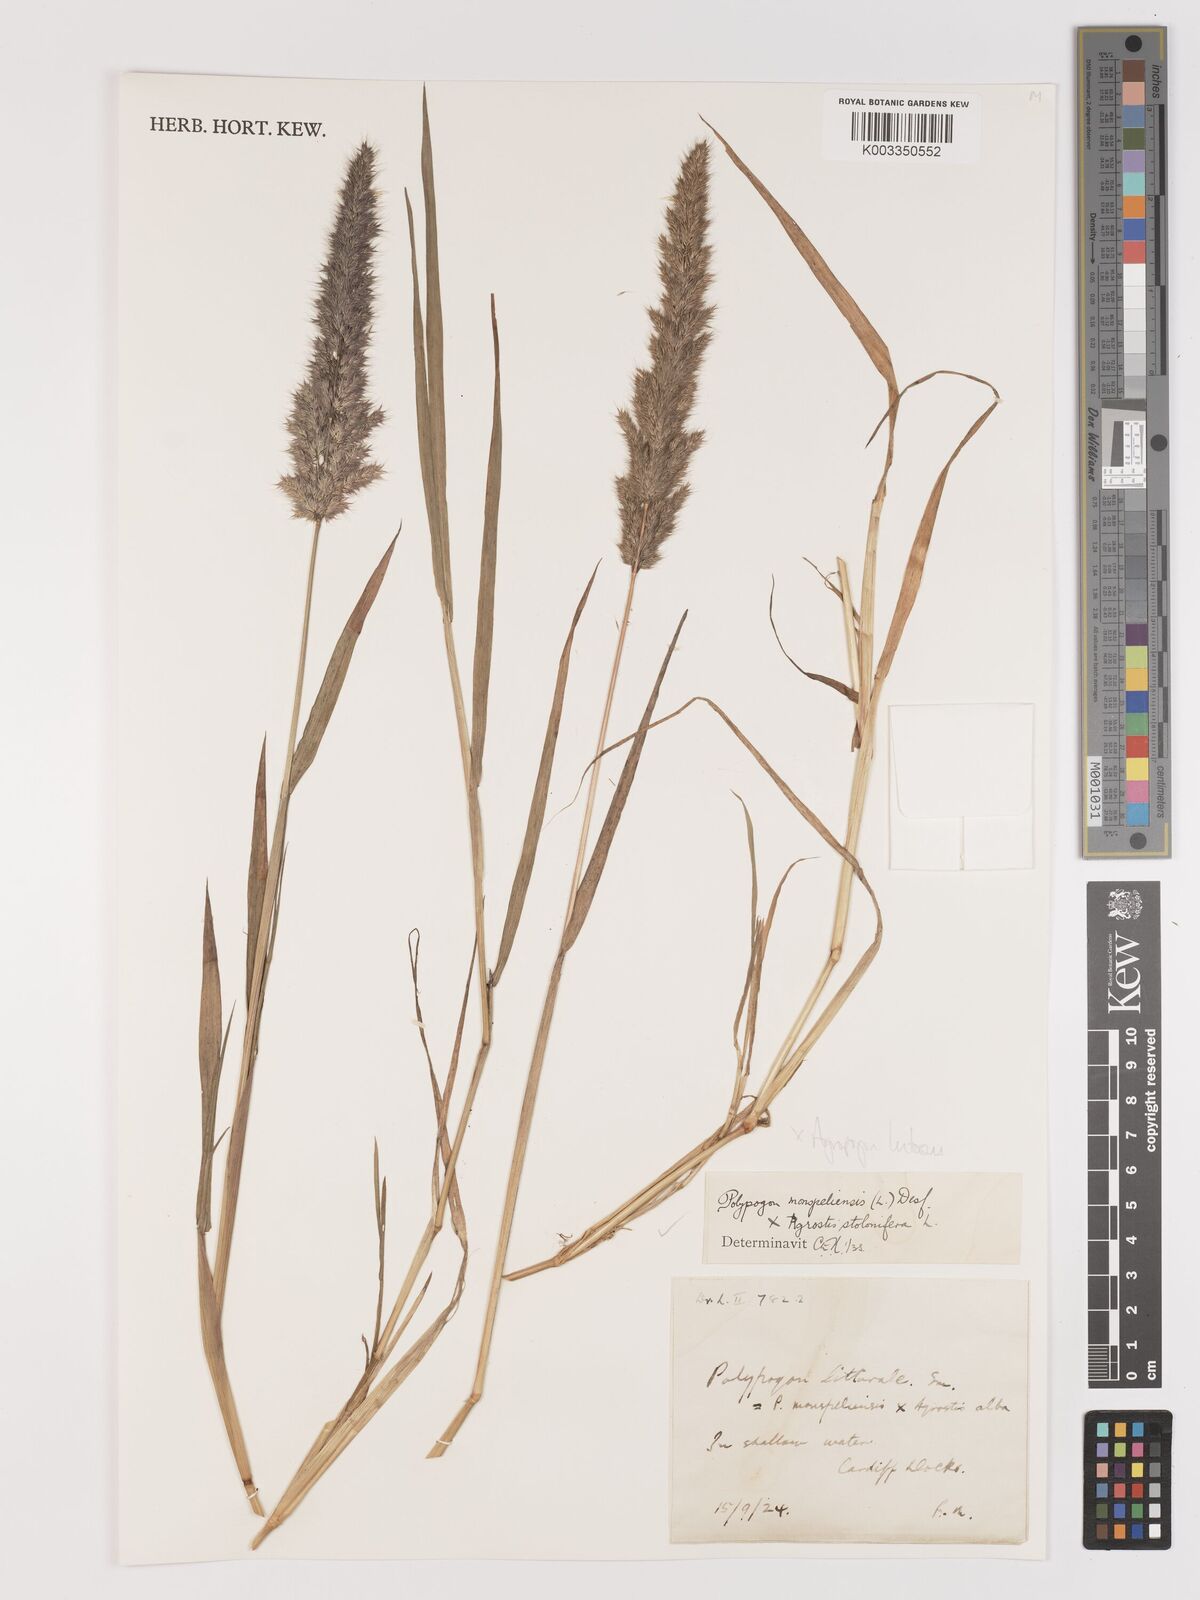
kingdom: Plantae
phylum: Tracheophyta
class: Liliopsida
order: Poales
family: Poaceae
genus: Agropogon
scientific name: Agropogon lutosus
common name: Coast agropogon
